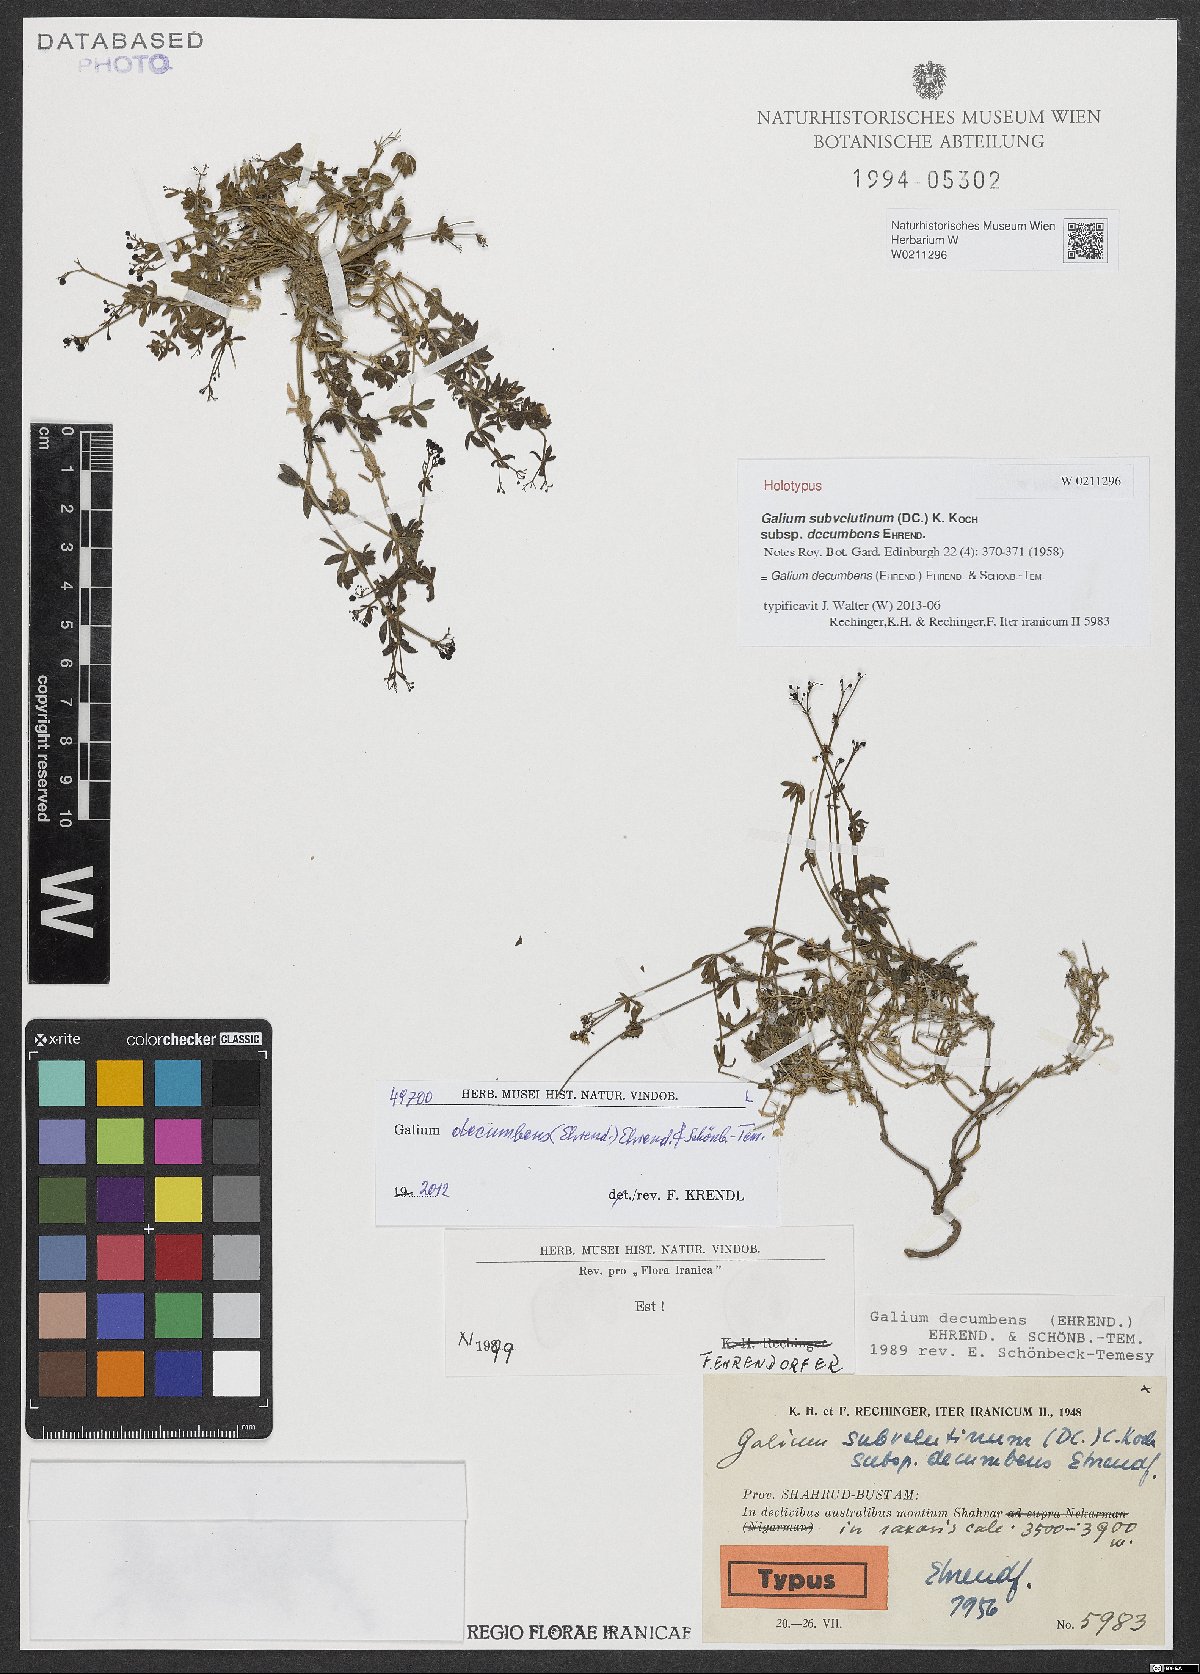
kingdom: Plantae
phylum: Tracheophyta
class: Magnoliopsida
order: Gentianales
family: Rubiaceae
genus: Galium
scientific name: Galium decumbens
